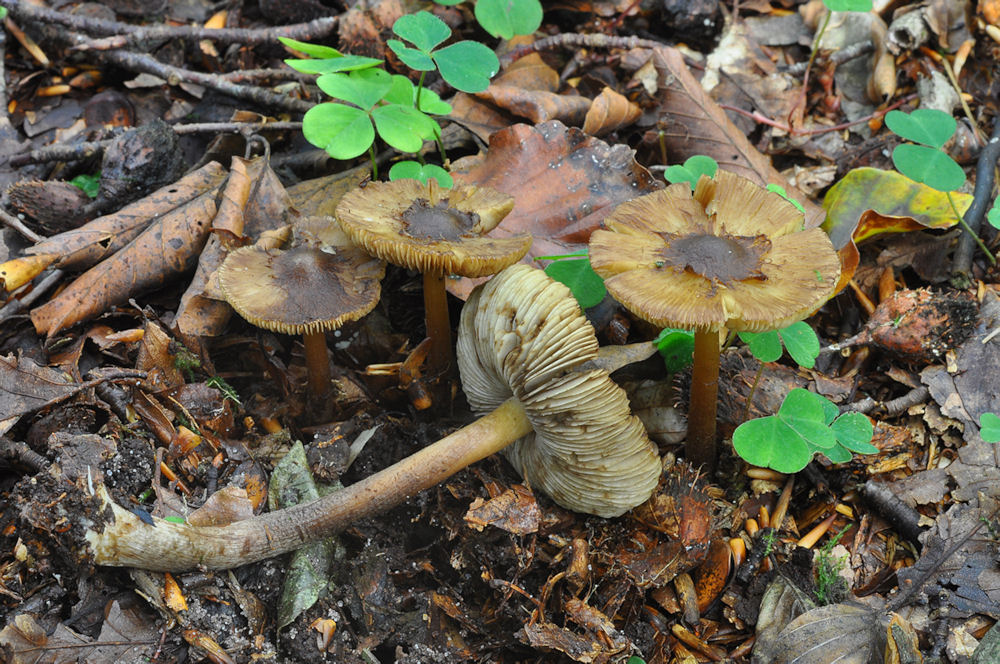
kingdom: Fungi
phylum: Basidiomycota
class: Agaricomycetes
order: Agaricales
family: Inocybaceae
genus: Inocybe
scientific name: Inocybe asterospora
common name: stjernesporet trævlhat
